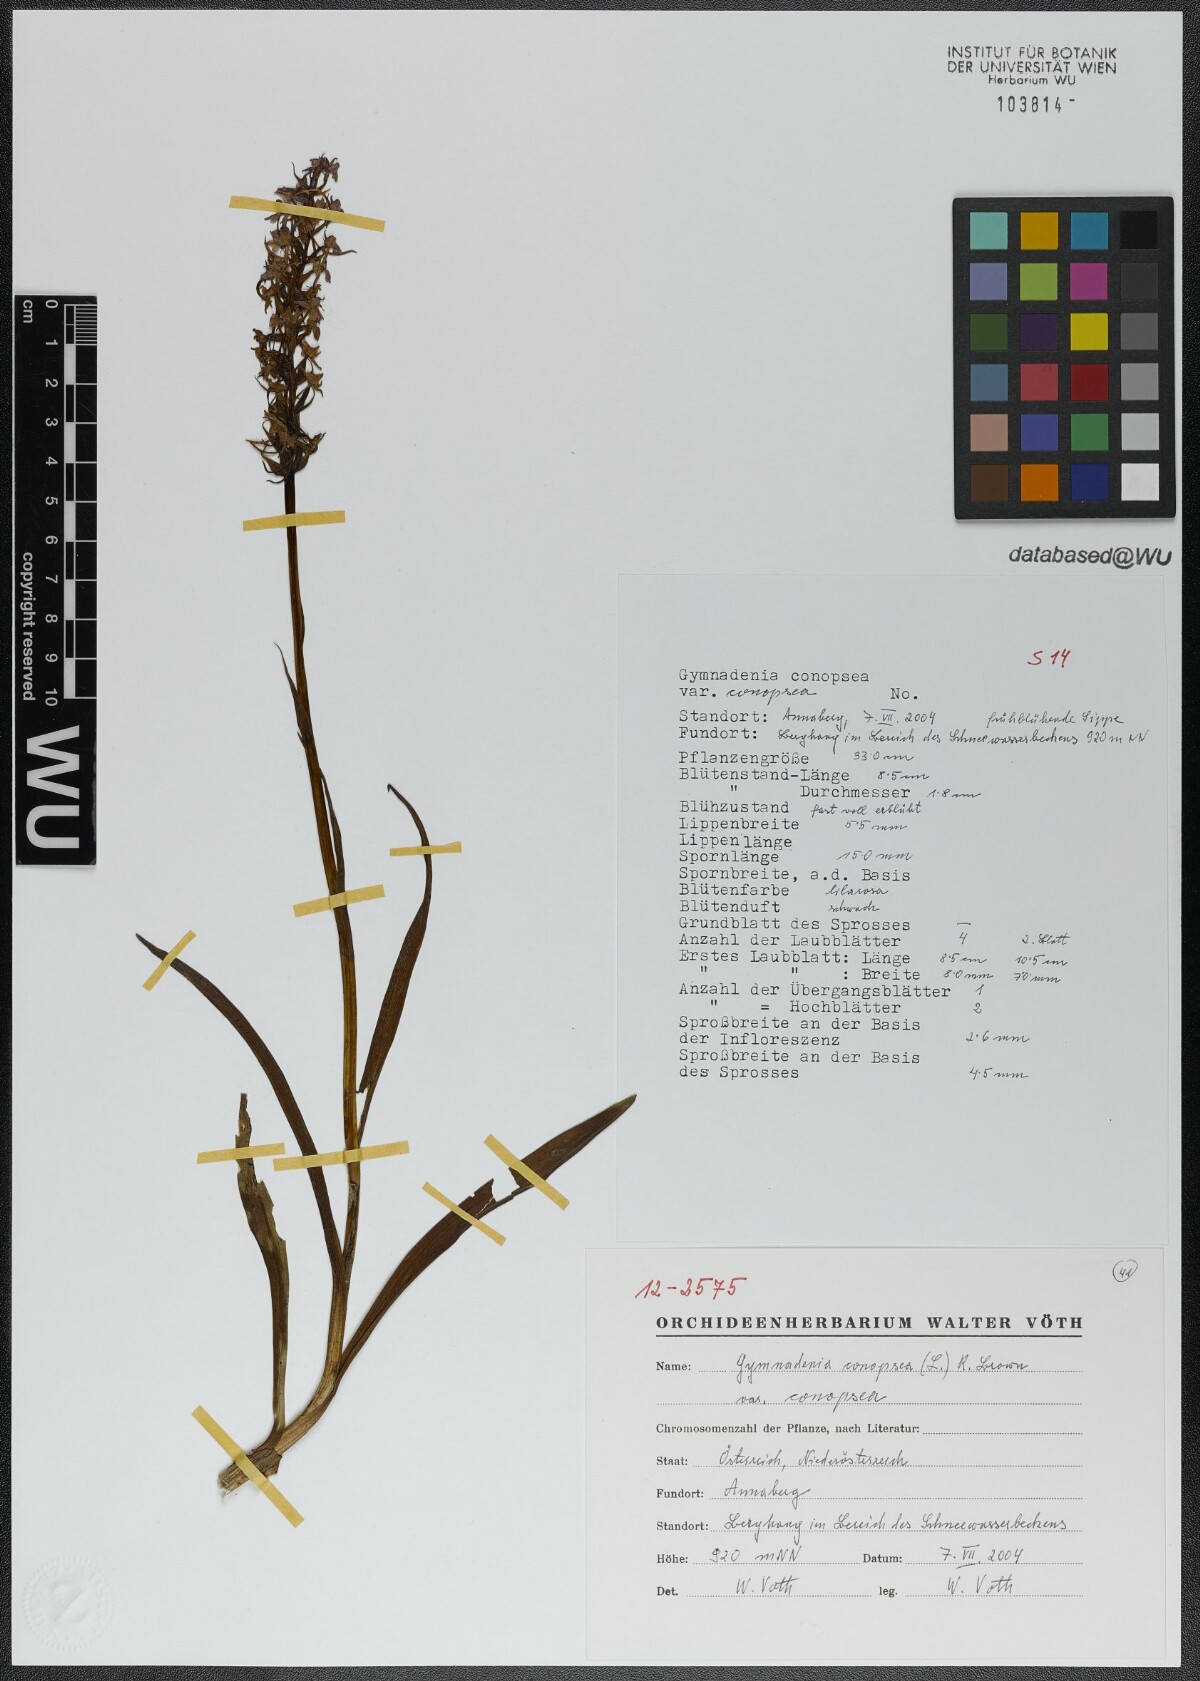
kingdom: Plantae
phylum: Tracheophyta
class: Liliopsida
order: Asparagales
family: Orchidaceae
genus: Gymnadenia
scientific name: Gymnadenia conopsea
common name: Fragrant orchid
